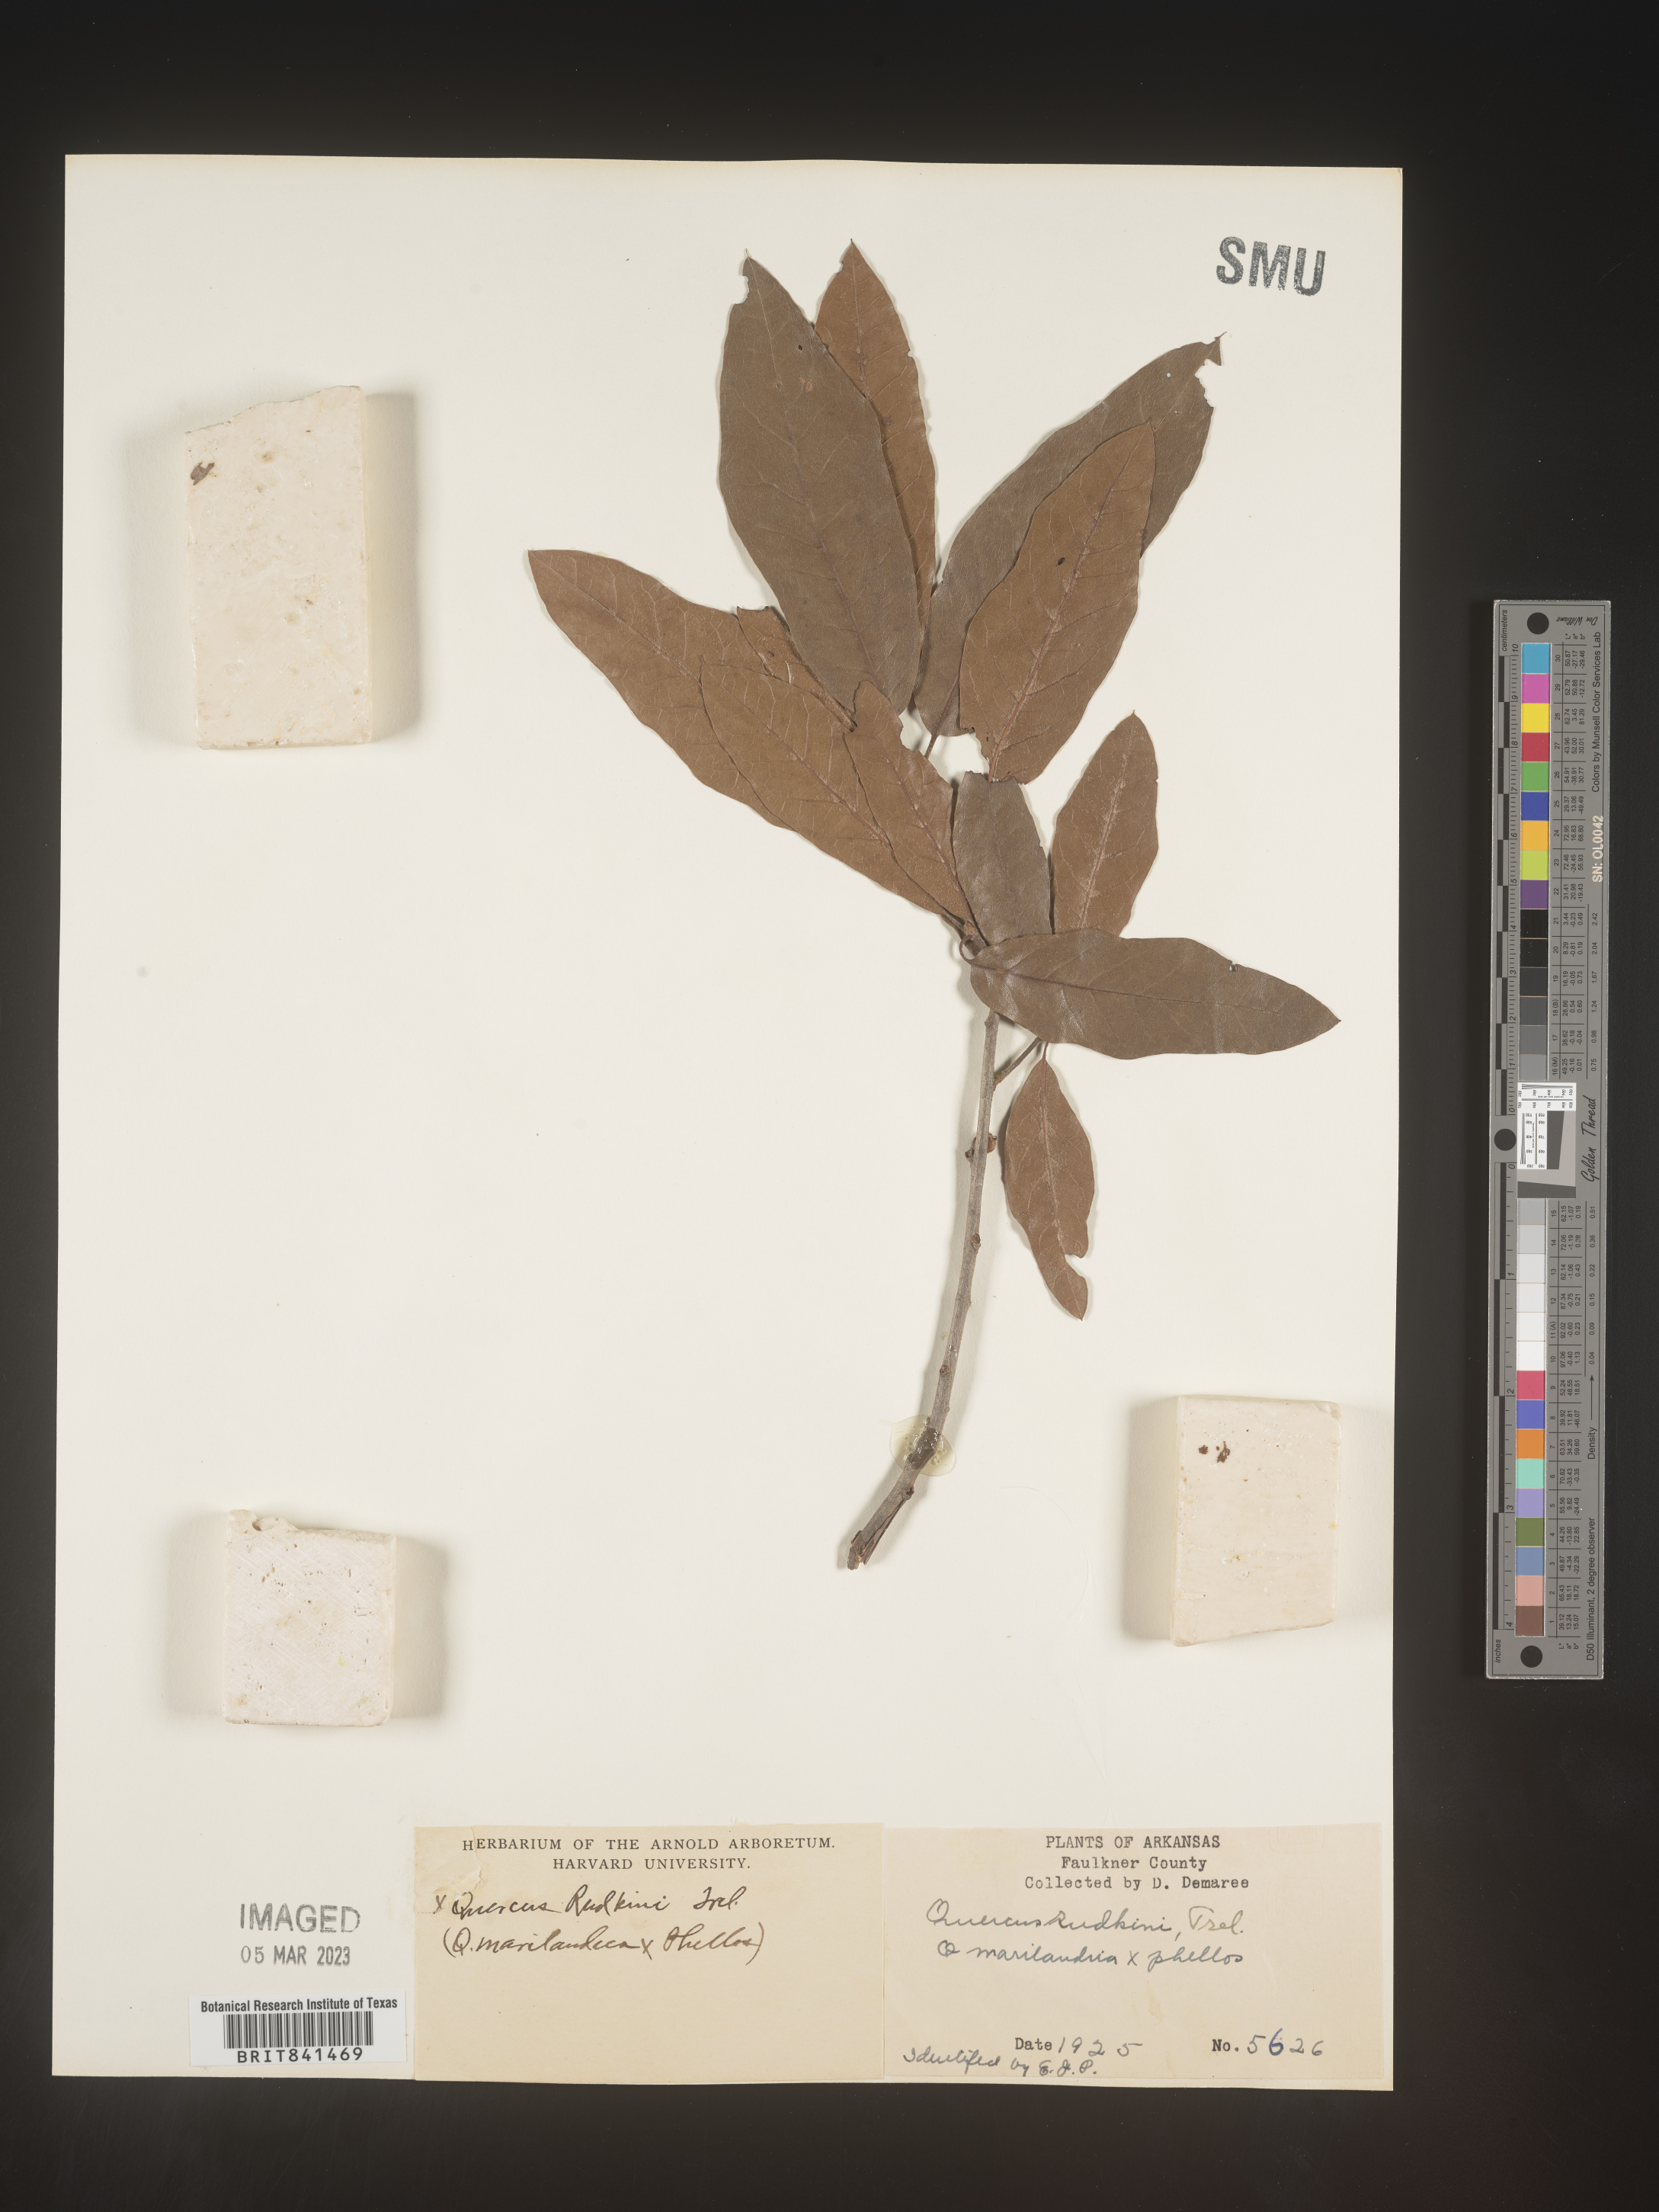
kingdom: Plantae
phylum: Tracheophyta
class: Magnoliopsida
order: Fagales
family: Fagaceae
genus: Quercus
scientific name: Quercus rudkinii
